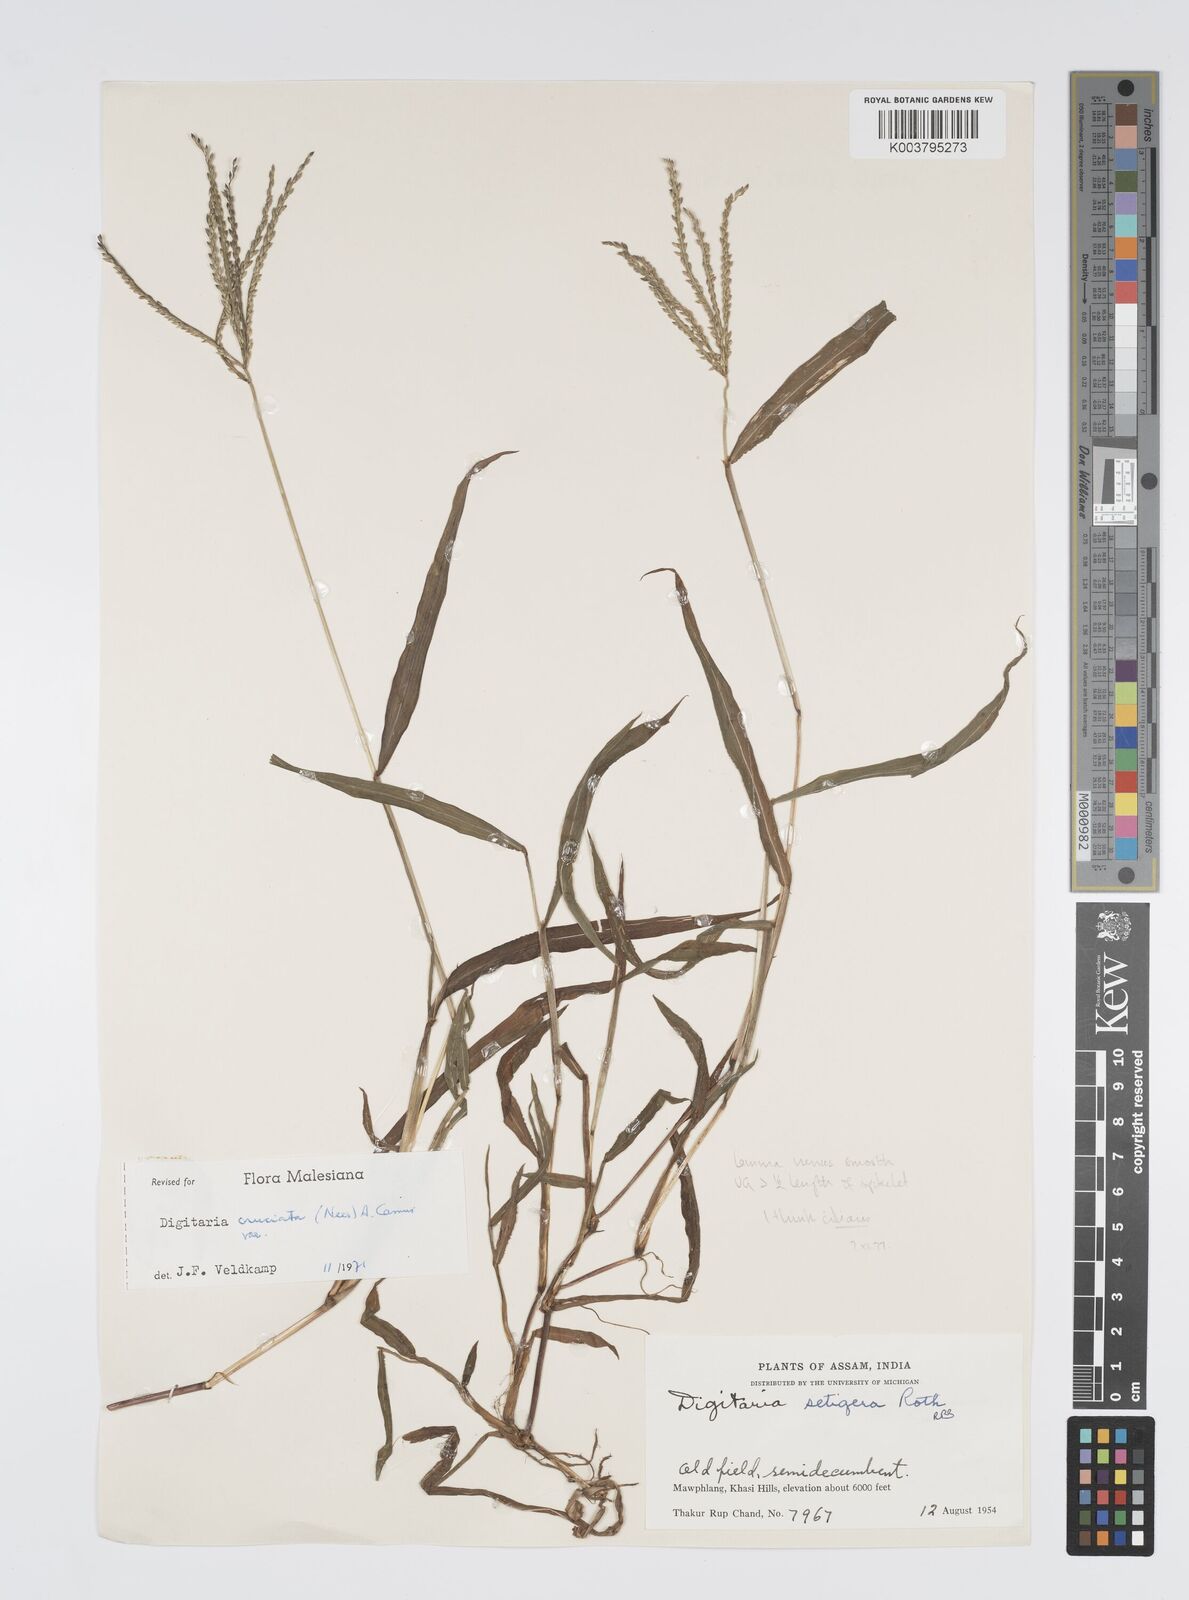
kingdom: Plantae
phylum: Tracheophyta
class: Liliopsida
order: Poales
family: Poaceae
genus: Digitaria
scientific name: Digitaria ciliaris
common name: Tropical finger-grass
